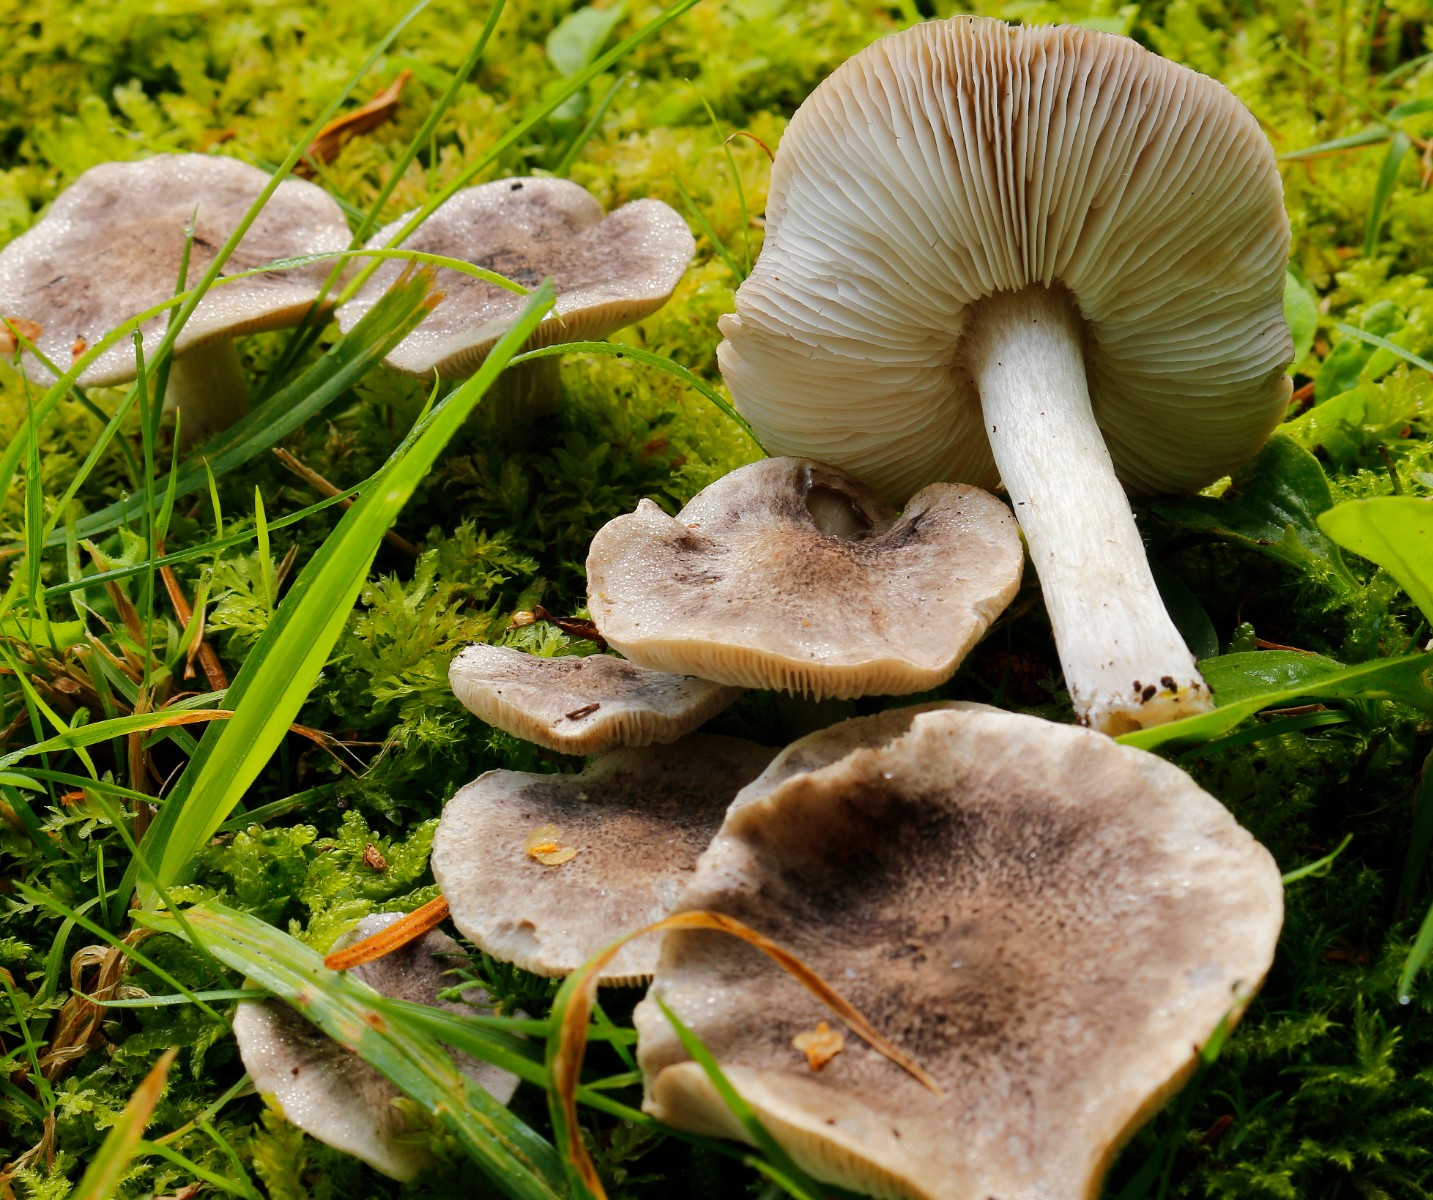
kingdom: Fungi
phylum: Basidiomycota
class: Agaricomycetes
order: Agaricales
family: Tricholomataceae
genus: Tricholoma
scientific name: Tricholoma terreum
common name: jordfarvet ridderhat
